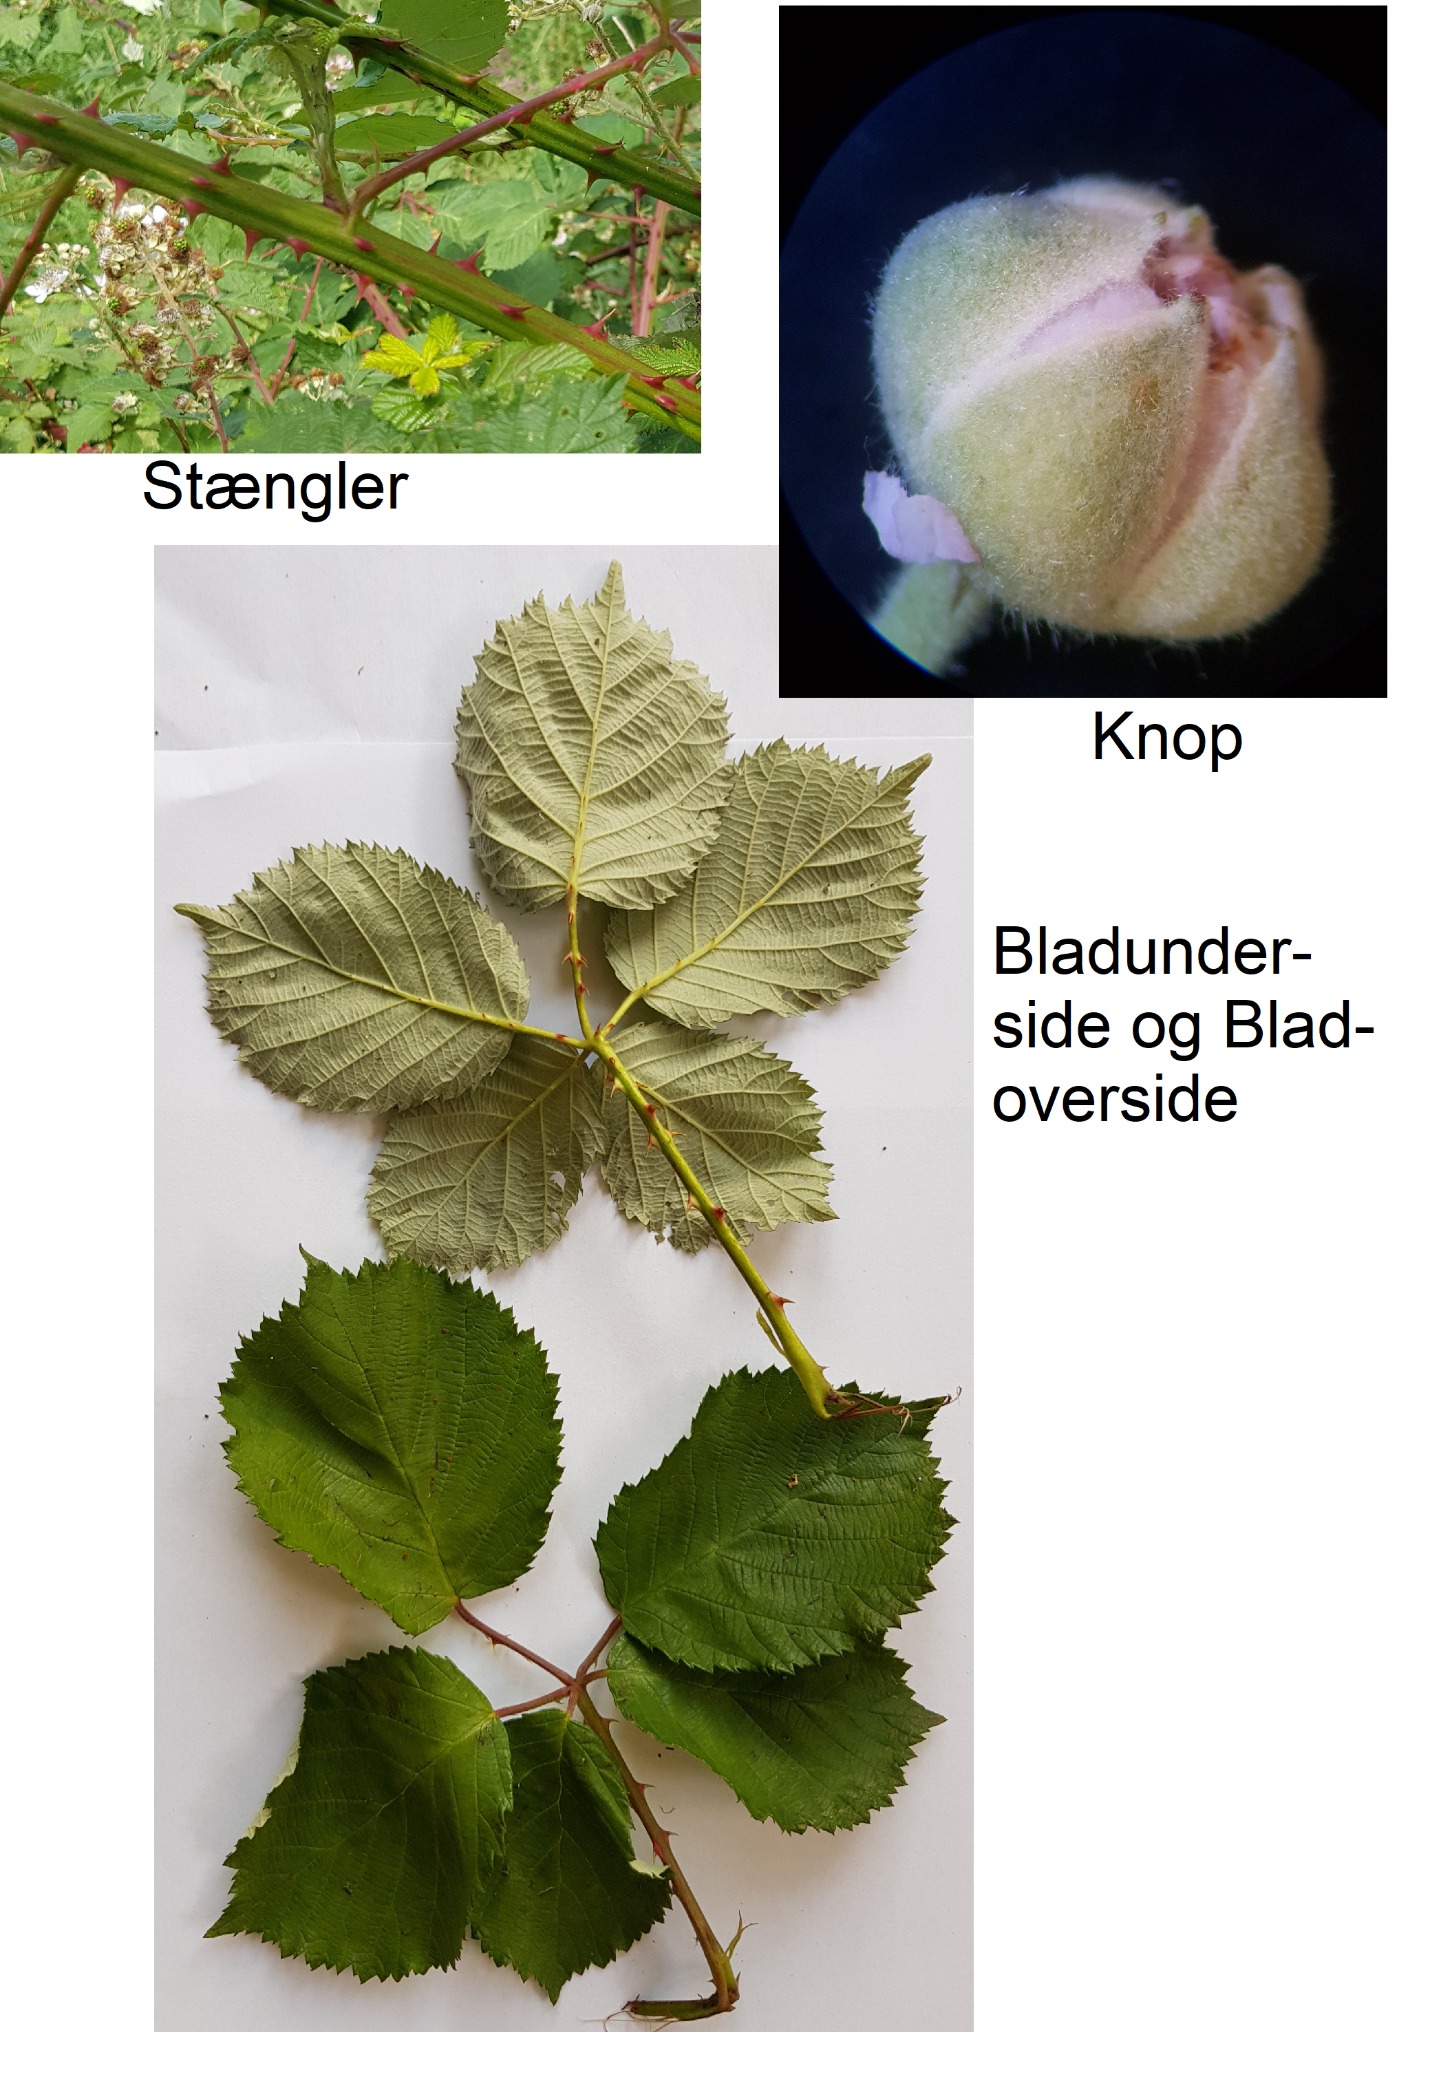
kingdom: Plantae
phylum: Tracheophyta
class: Magnoliopsida
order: Rosales
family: Rosaceae
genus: Rubus
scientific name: Rubus armeniacus
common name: Armensk brombær
